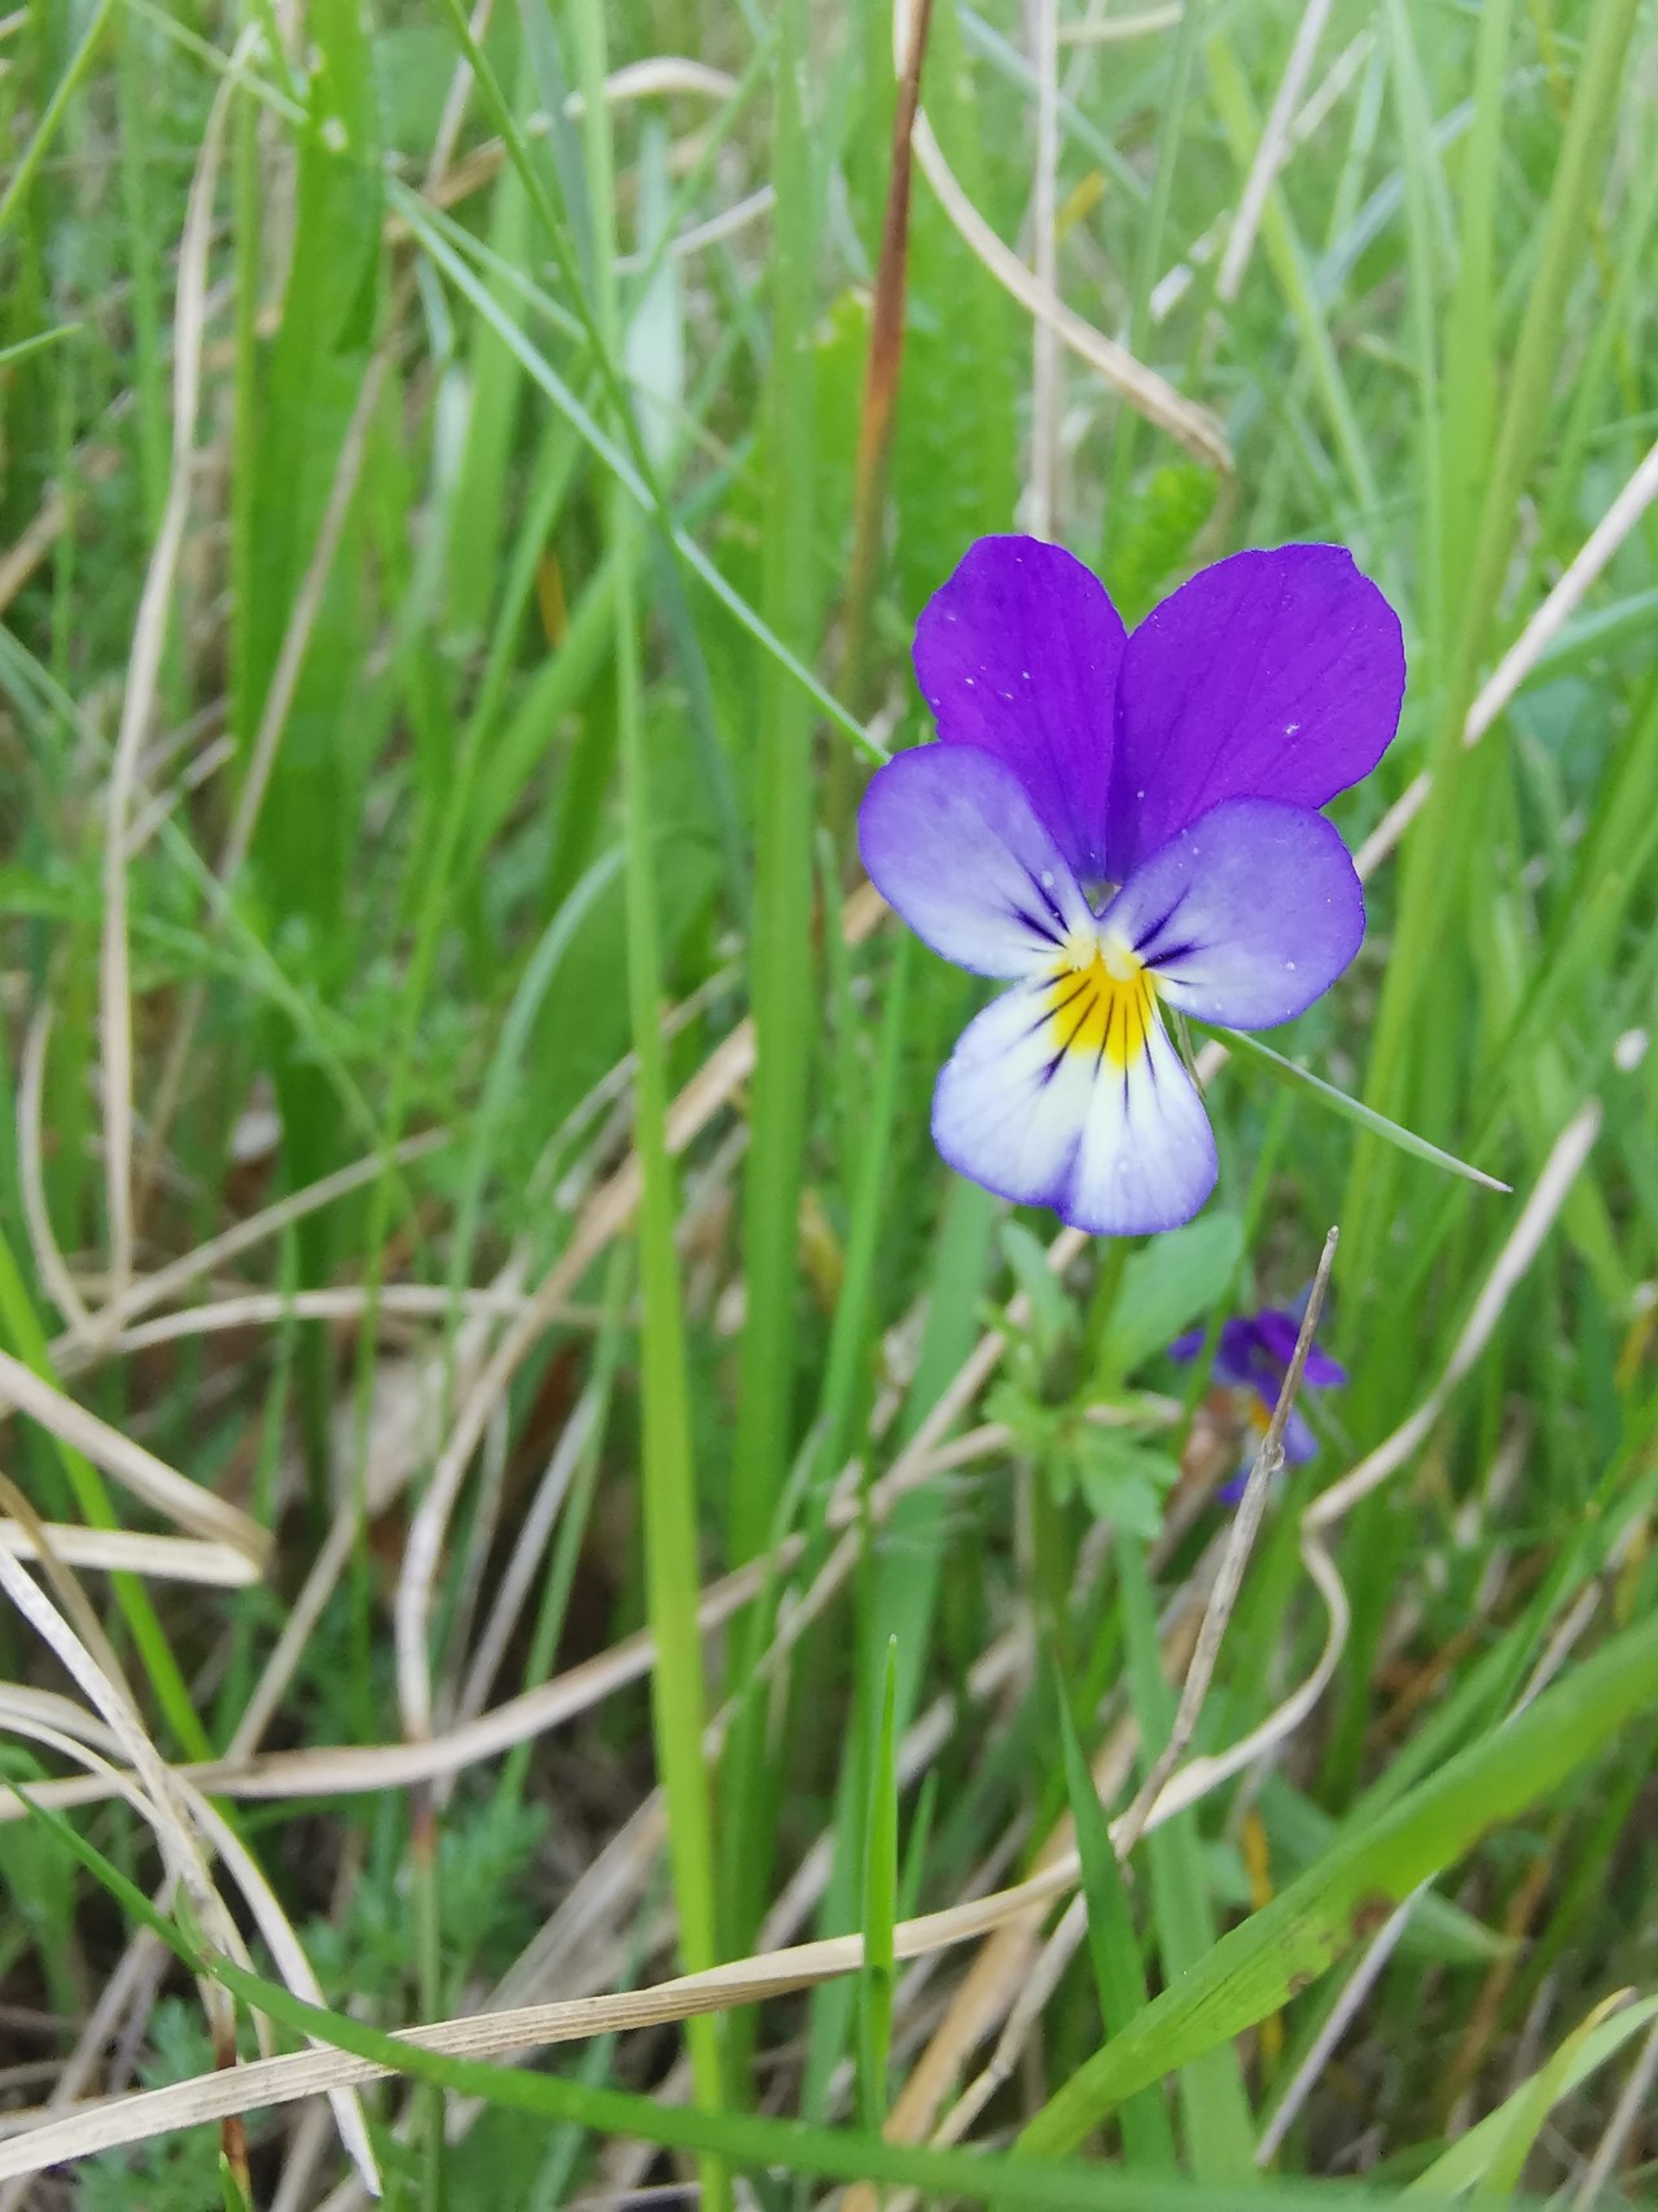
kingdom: Plantae
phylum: Tracheophyta
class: Magnoliopsida
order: Malpighiales
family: Violaceae
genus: Viola
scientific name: Viola tricolor
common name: Stedmoderblomst
